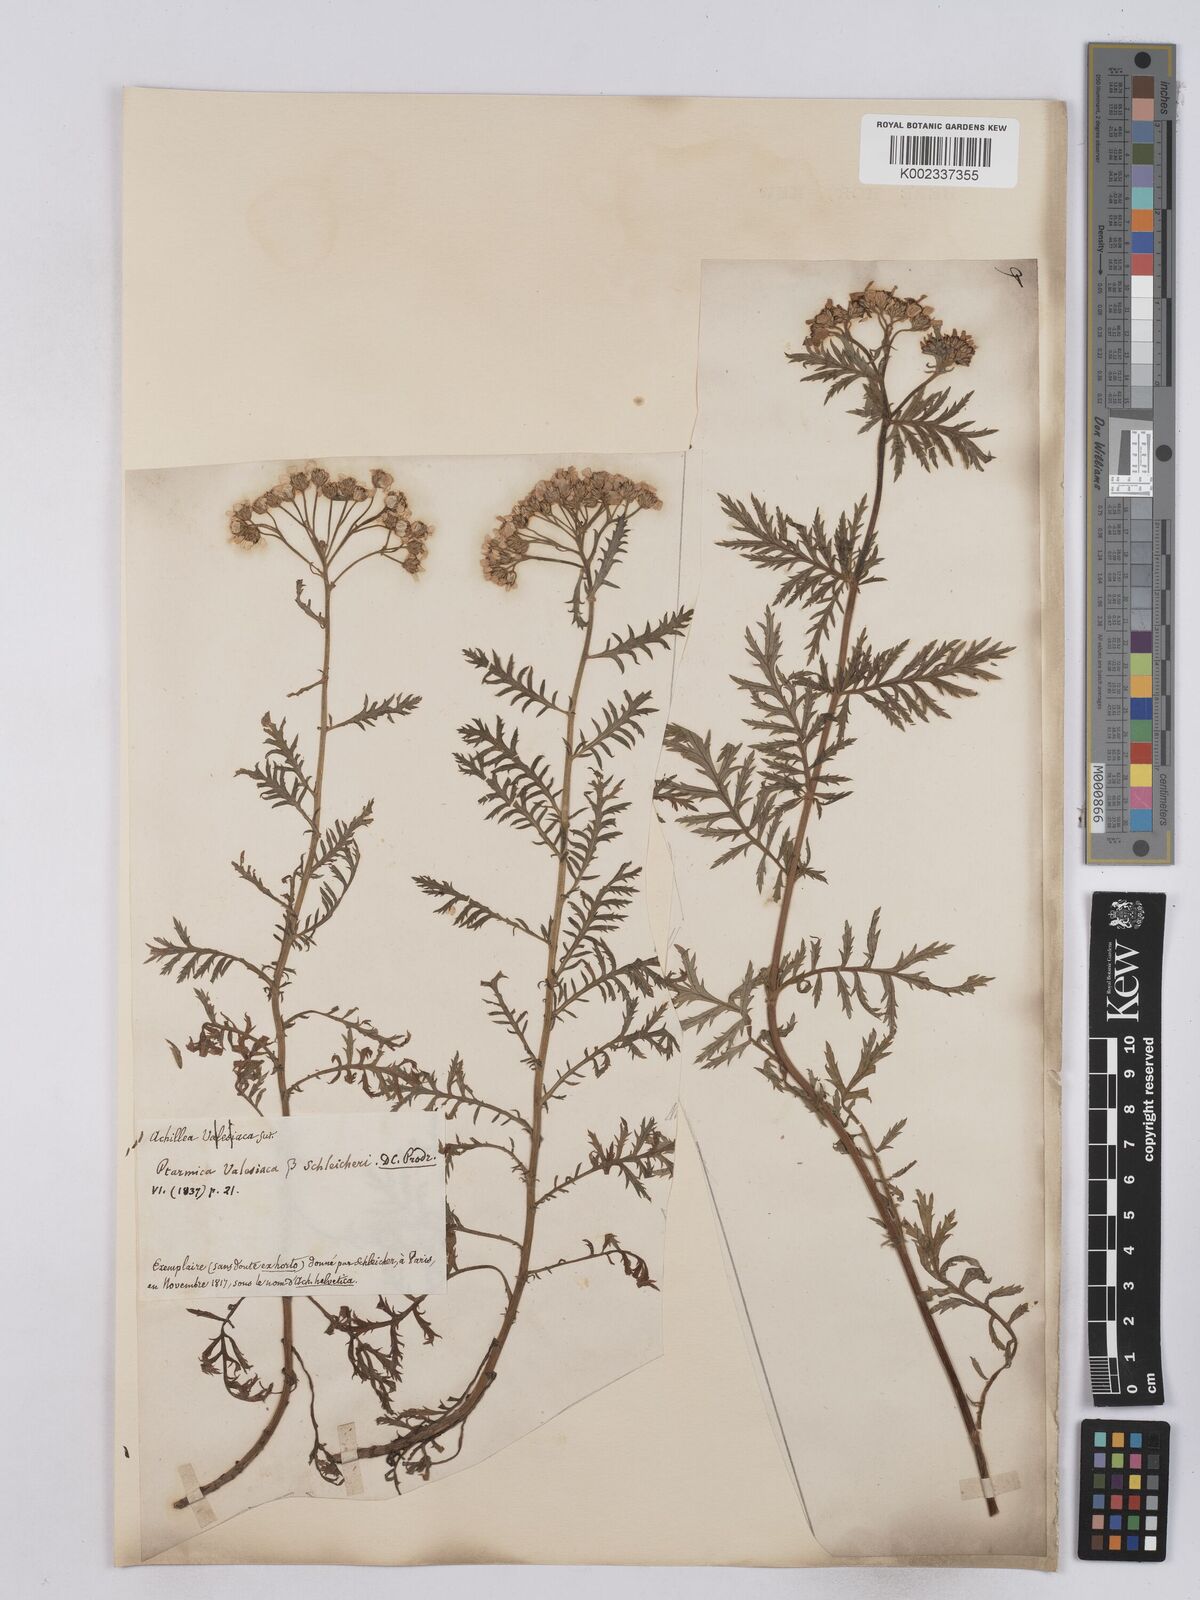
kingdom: Plantae
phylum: Tracheophyta
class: Magnoliopsida
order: Asterales
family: Asteraceae
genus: Achillea
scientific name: Achillea valesiaca
